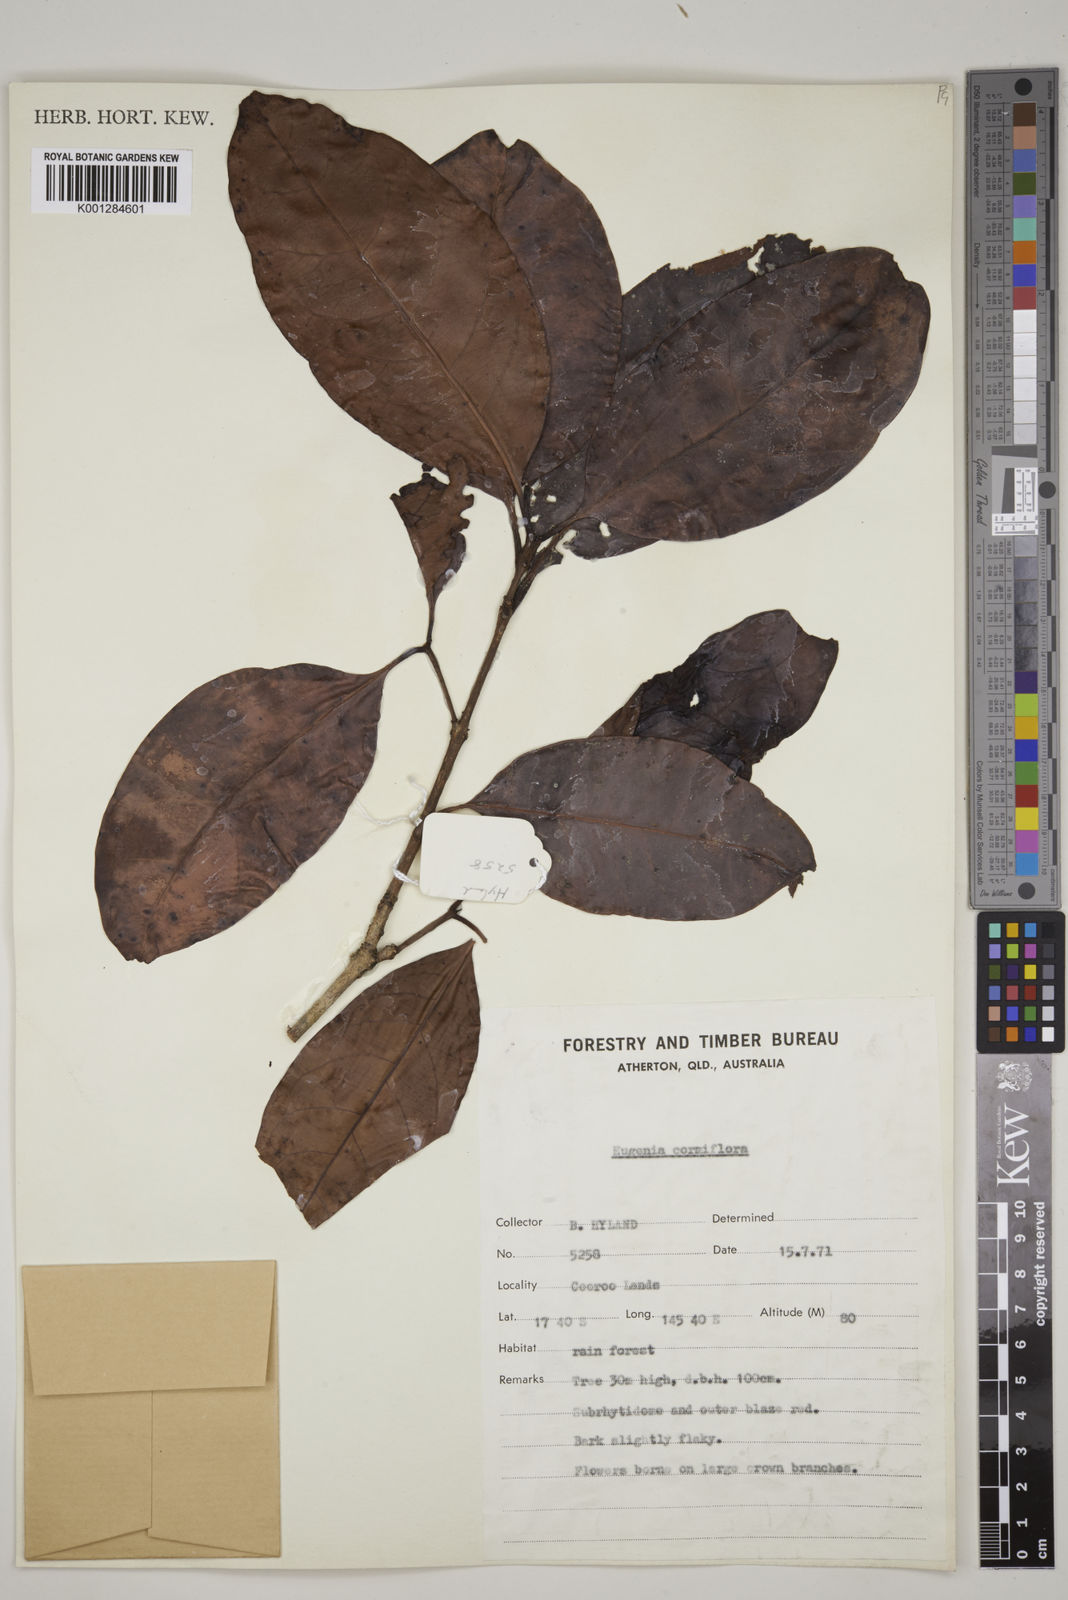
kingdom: Plantae
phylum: Tracheophyta
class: Magnoliopsida
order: Myrtales
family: Myrtaceae
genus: Syzygium
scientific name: Syzygium cormiflorum
